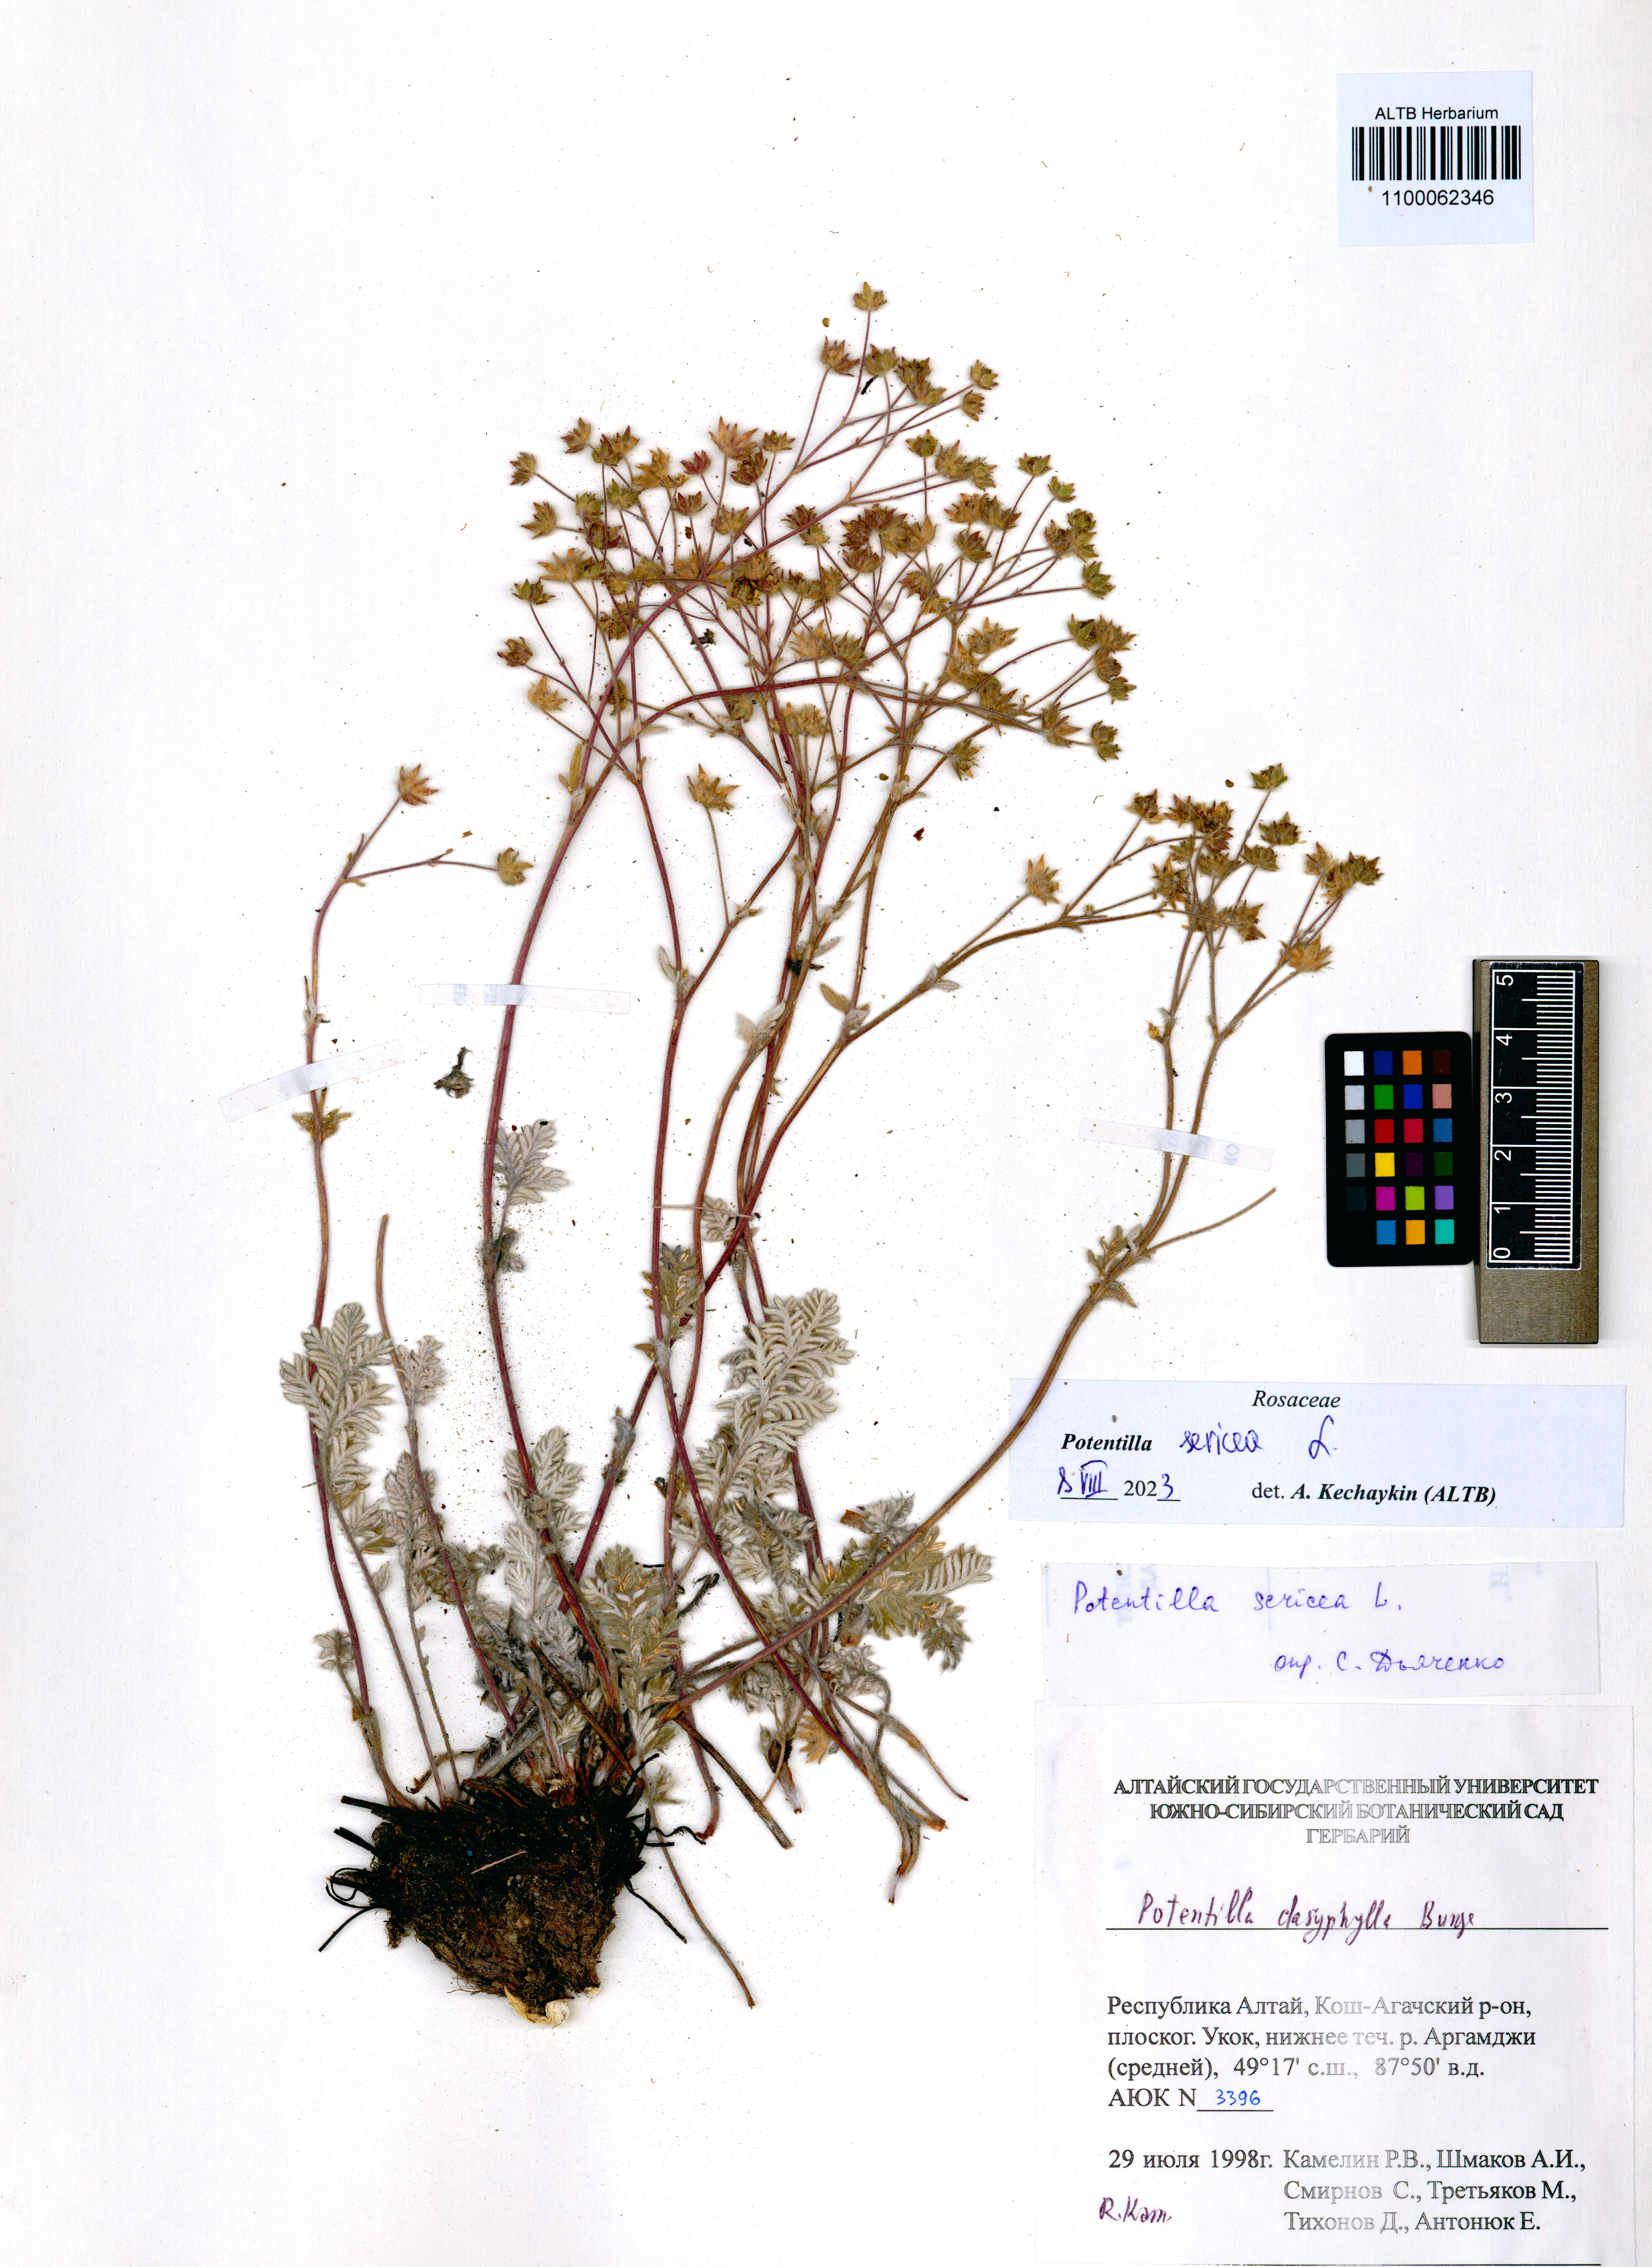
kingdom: Plantae
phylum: Tracheophyta
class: Magnoliopsida
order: Rosales
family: Rosaceae
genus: Potentilla
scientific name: Potentilla sericea
